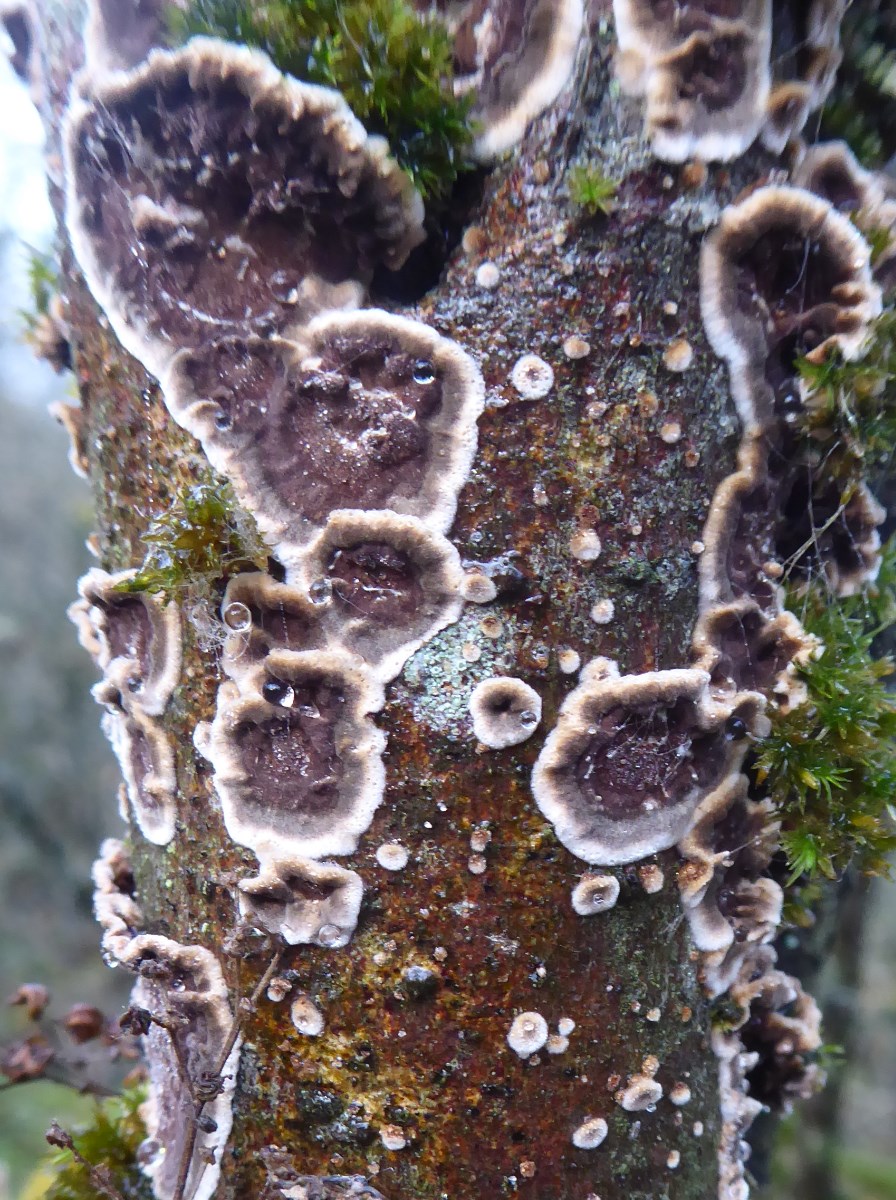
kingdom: Fungi
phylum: Basidiomycota
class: Agaricomycetes
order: Hymenochaetales
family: Hymenochaetaceae
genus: Hydnoporia
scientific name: Hydnoporia tabacina
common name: tobaksbrun ruslædersvamp
